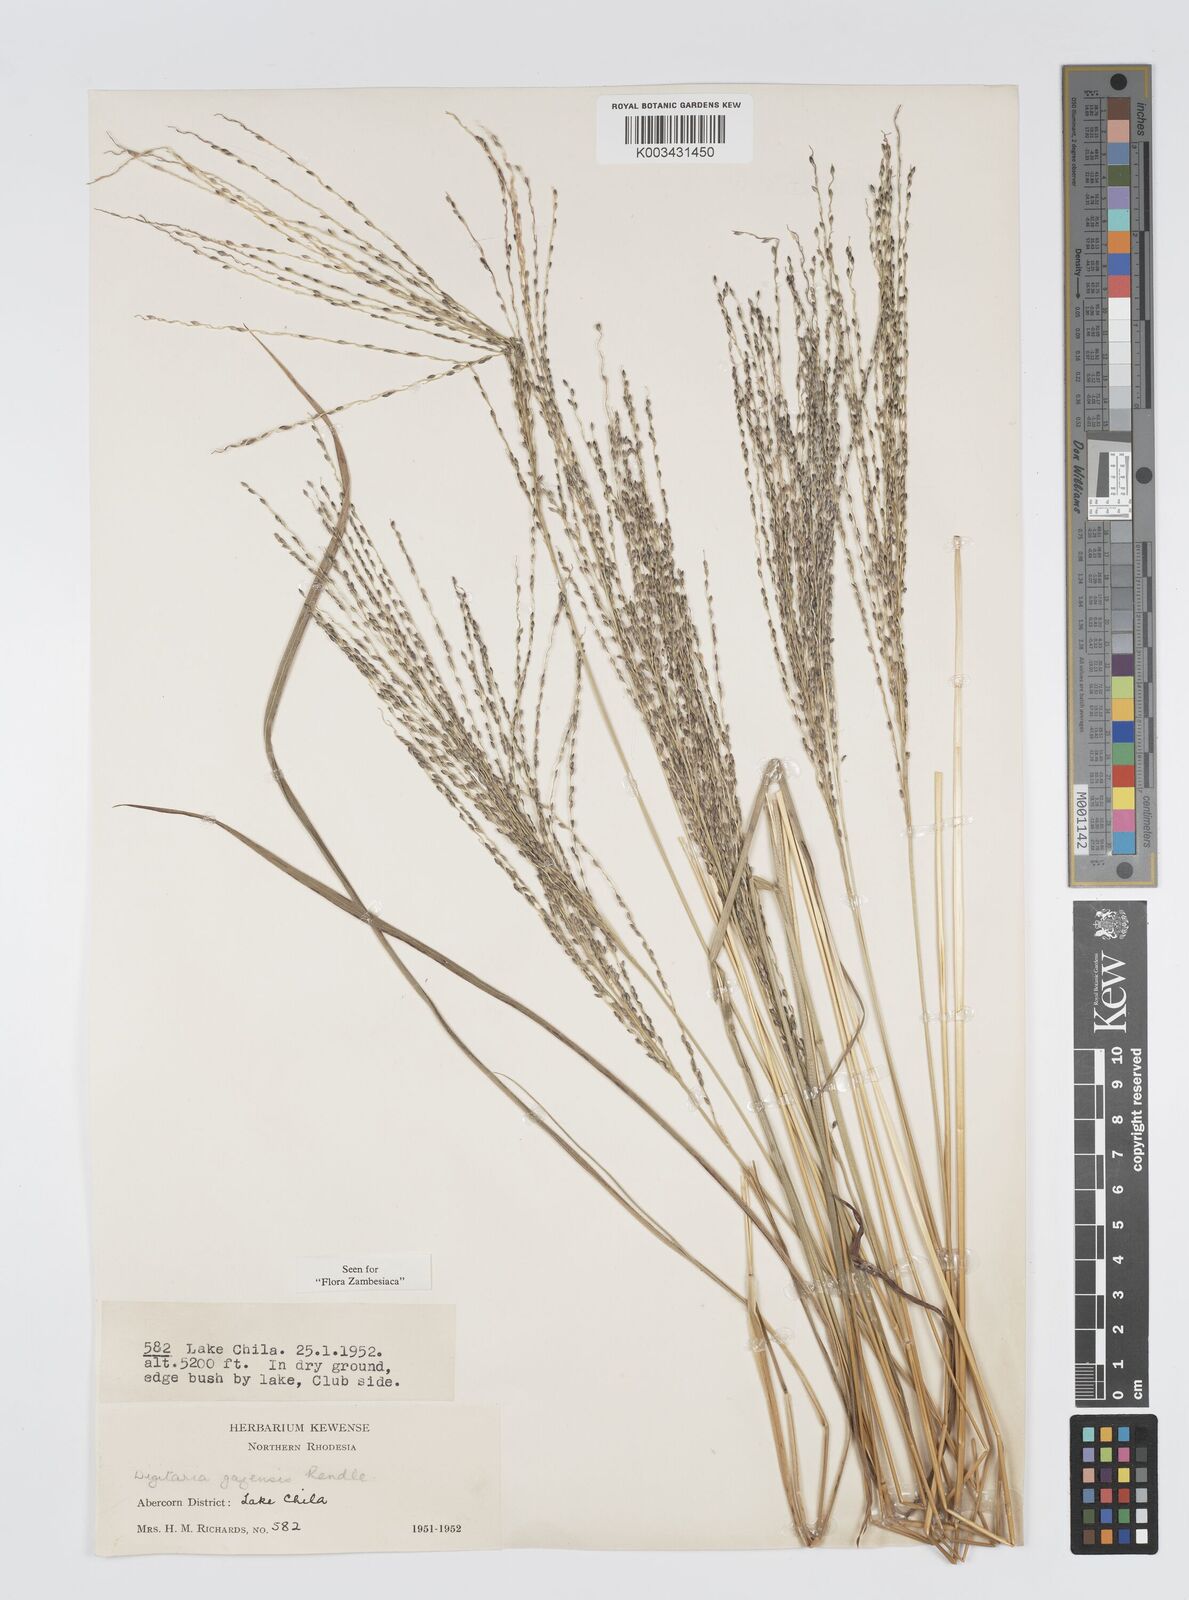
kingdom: Plantae
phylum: Tracheophyta
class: Liliopsida
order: Poales
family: Poaceae
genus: Digitaria
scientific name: Digitaria gazensis
